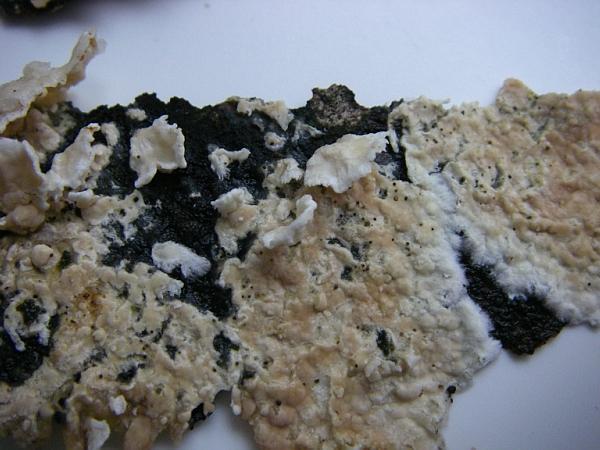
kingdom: Fungi
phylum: Basidiomycota
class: Agaricomycetes
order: Agaricales
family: Physalacriaceae
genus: Cylindrobasidium
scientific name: Cylindrobasidium evolvens
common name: sprækkehinde
